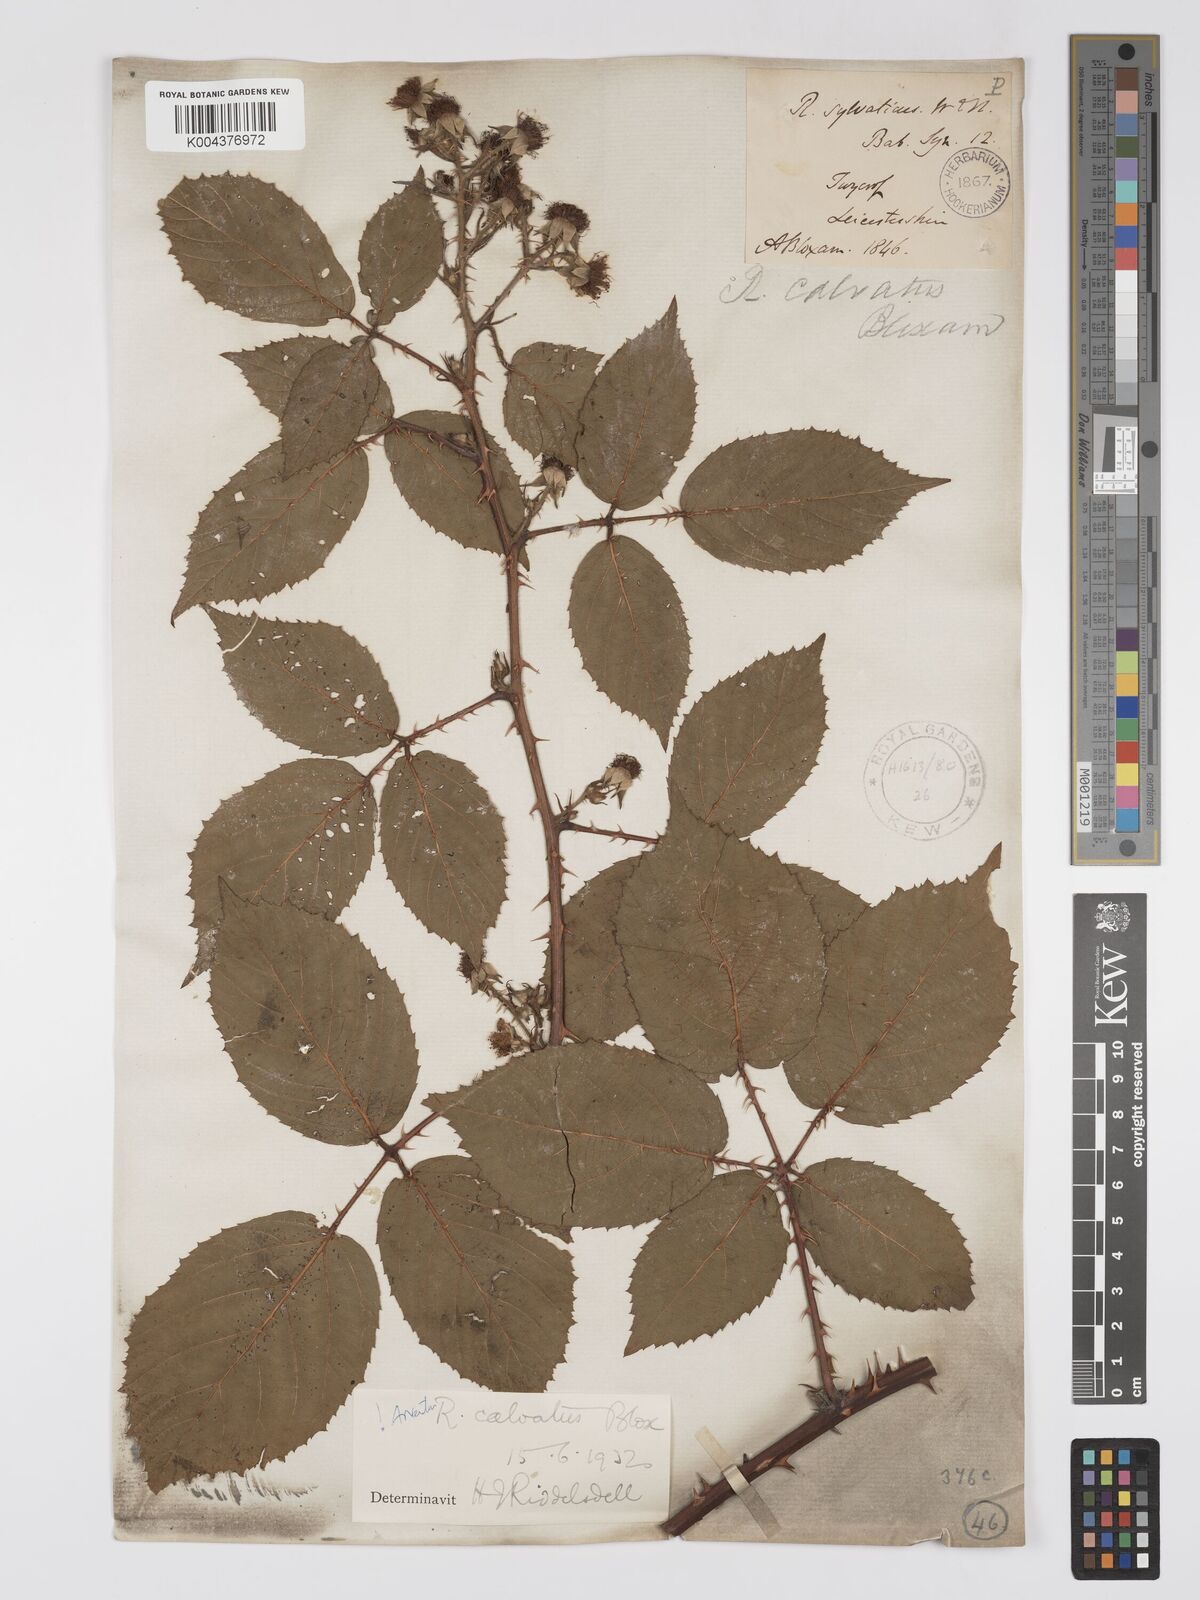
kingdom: Plantae
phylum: Tracheophyta
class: Magnoliopsida
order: Rosales
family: Rosaceae
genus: Rubus
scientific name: Rubus calvatus
